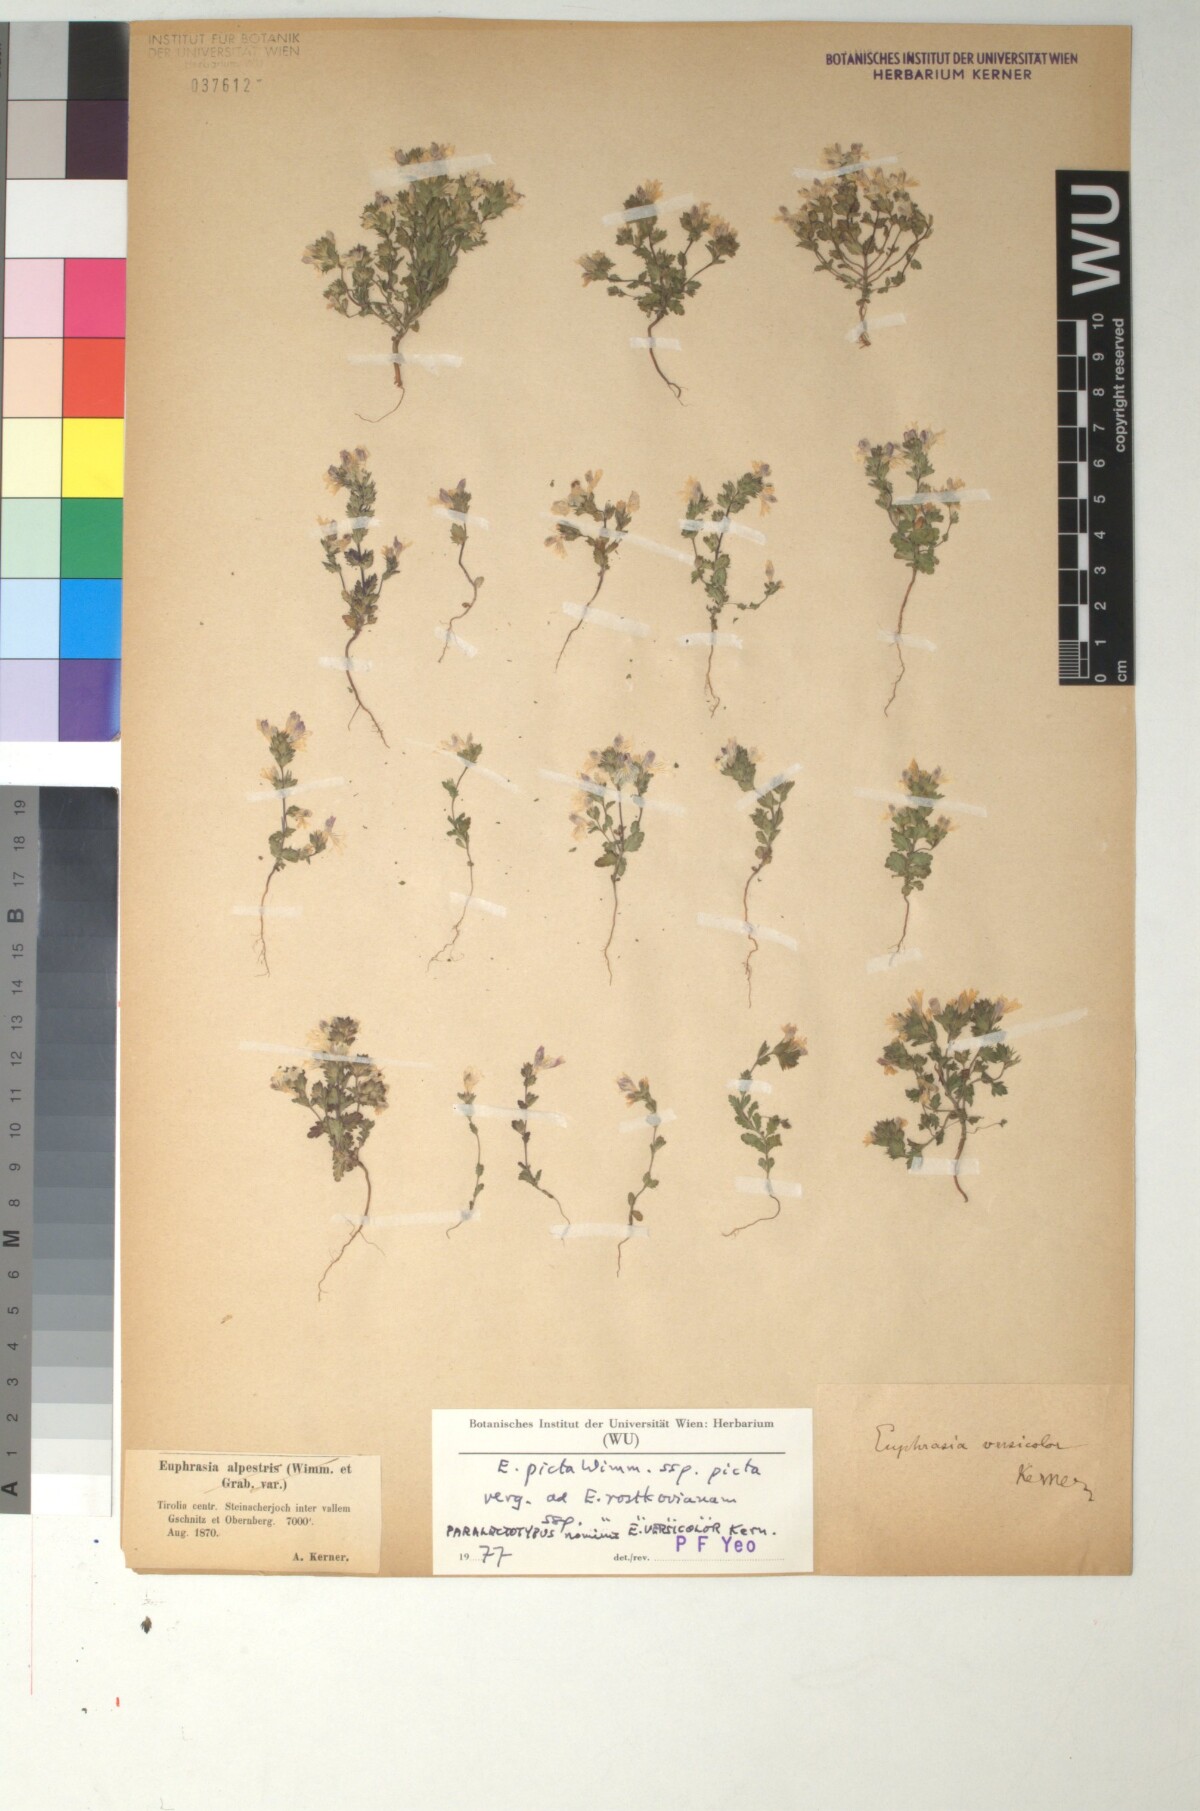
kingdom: Plantae
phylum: Tracheophyta
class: Magnoliopsida
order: Lamiales
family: Orobanchaceae
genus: Euphrasia
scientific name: Euphrasia picta
